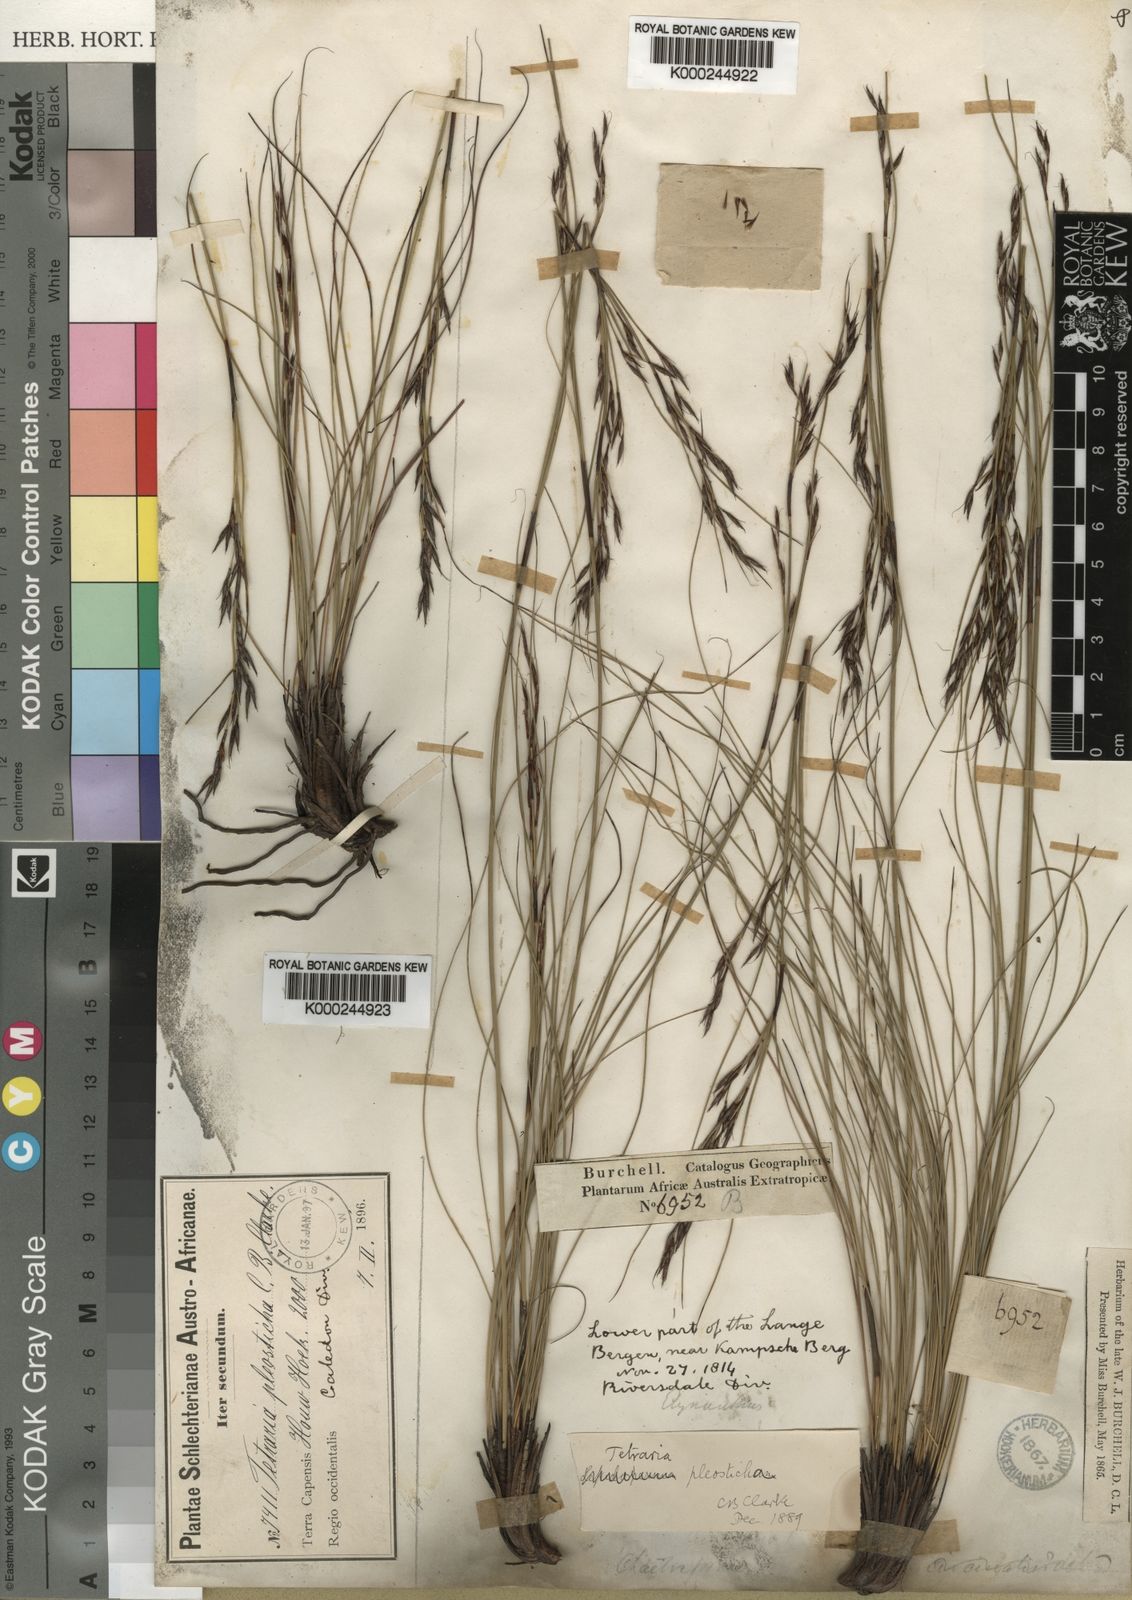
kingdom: Plantae
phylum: Tracheophyta
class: Liliopsida
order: Poales
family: Cyperaceae
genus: Tetraria
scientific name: Tetraria pleosticha
